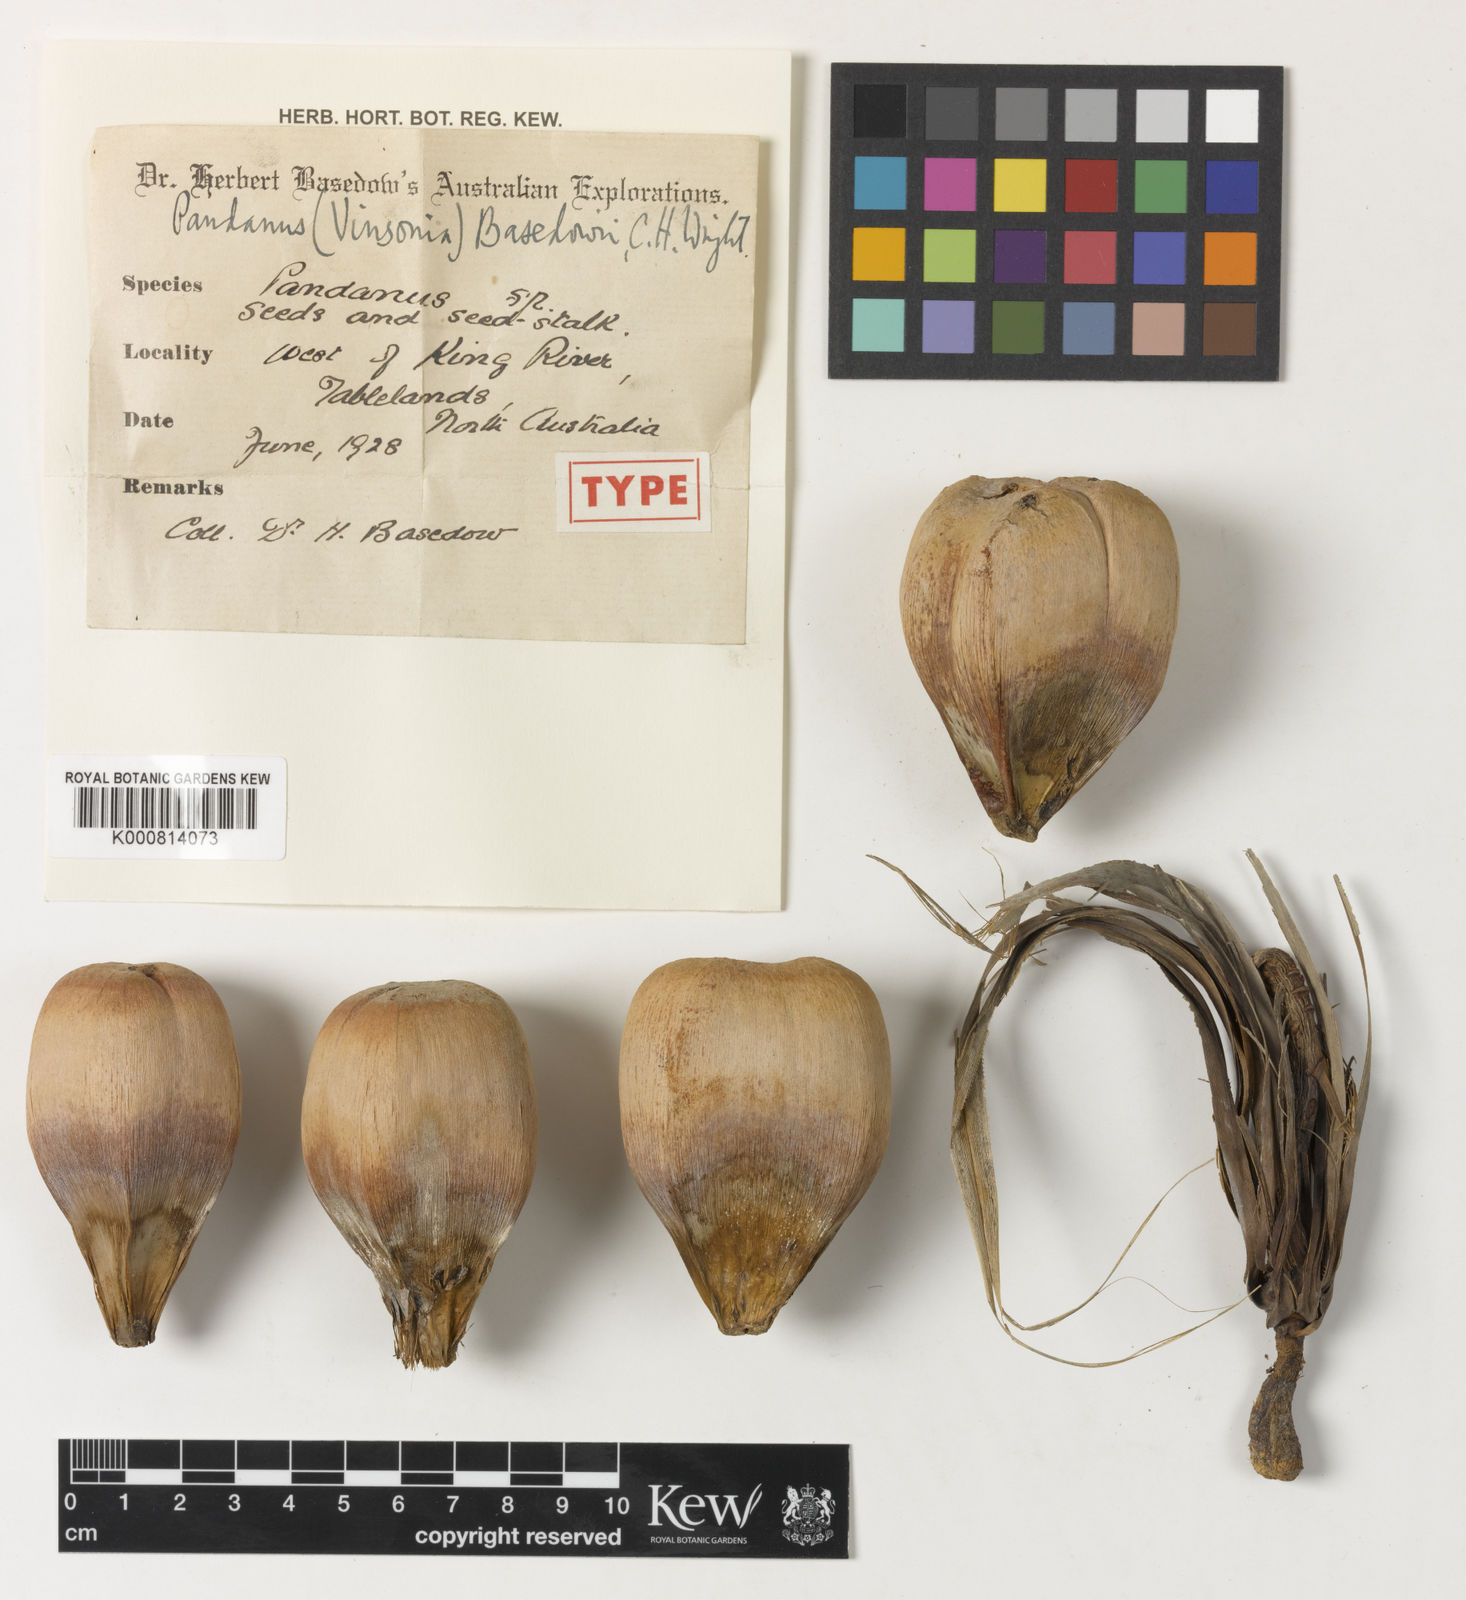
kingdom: Plantae
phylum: Tracheophyta
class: Liliopsida
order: Pandanales
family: Pandanaceae
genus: Pandanus
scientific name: Pandanus basedowii
